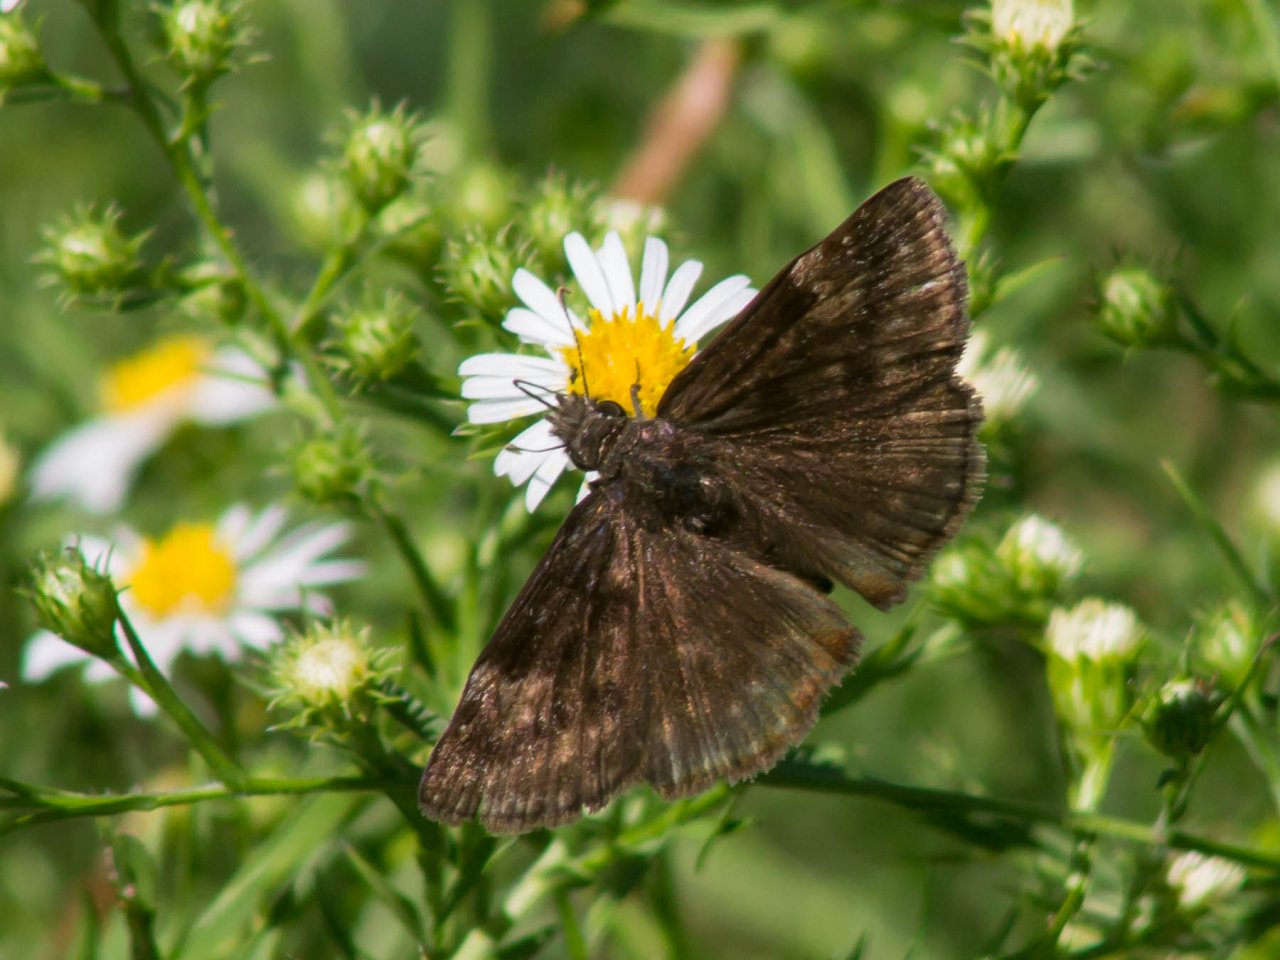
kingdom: Animalia
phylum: Arthropoda
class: Insecta
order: Lepidoptera
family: Hesperiidae
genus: Gesta
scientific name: Gesta
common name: Wild Indigo Duskywing
